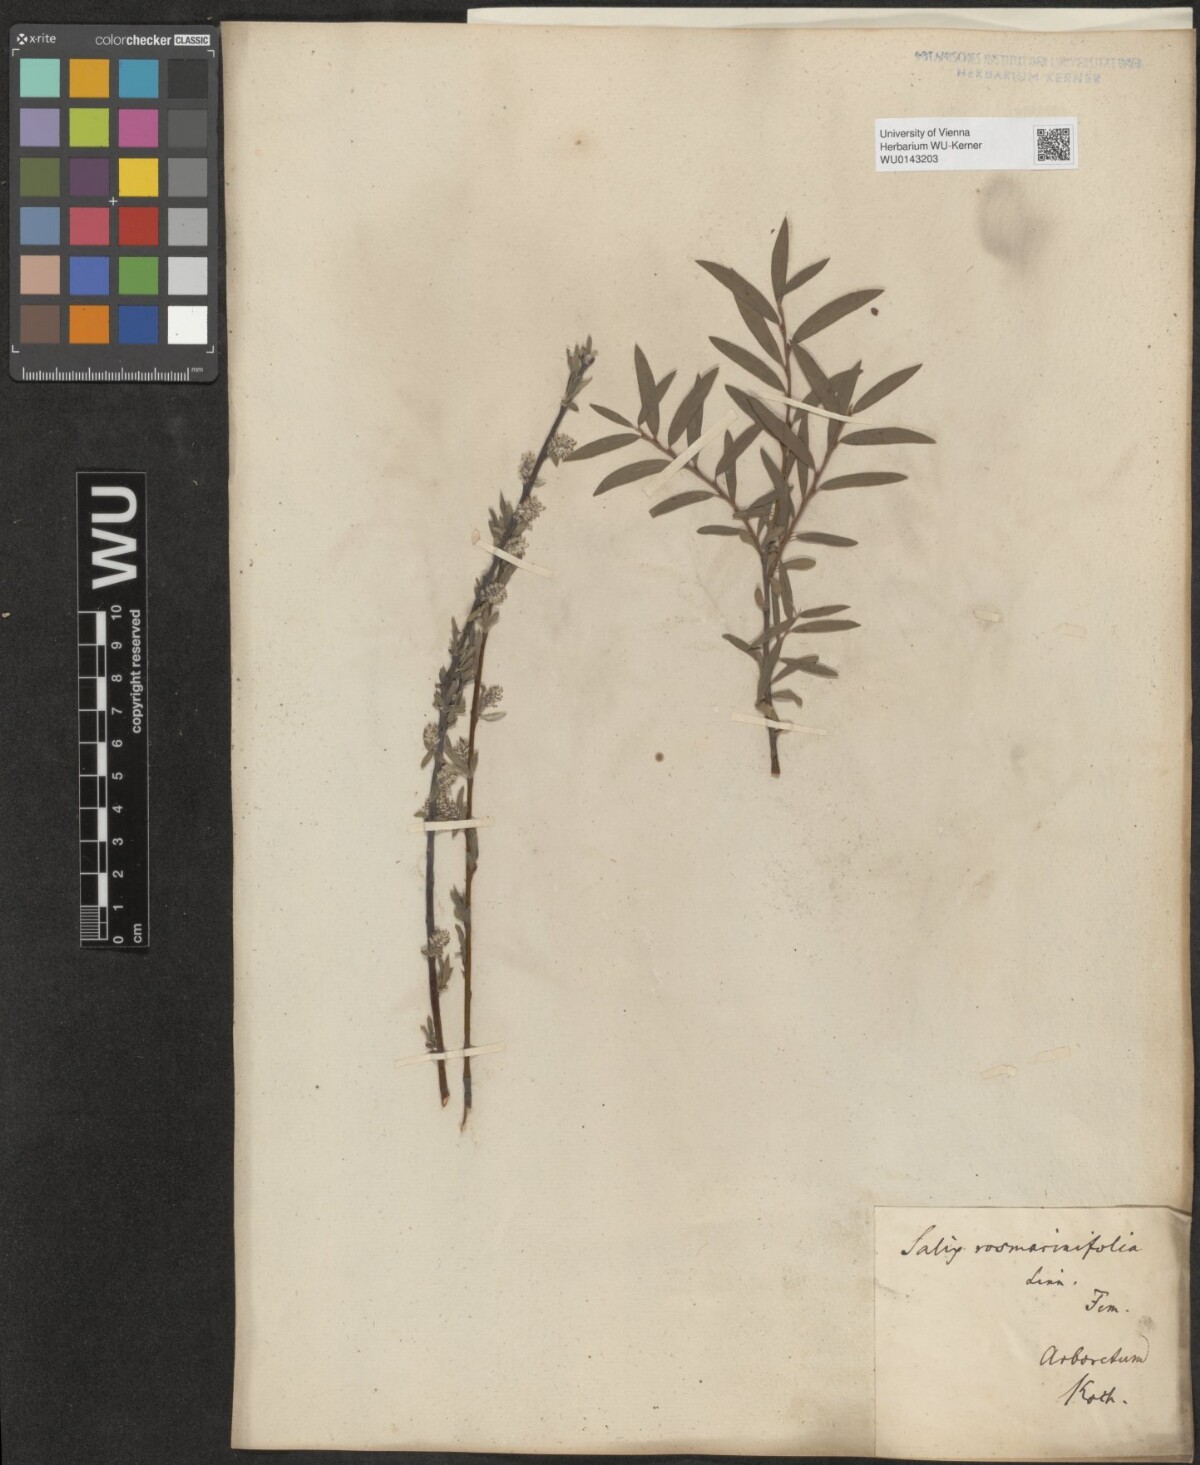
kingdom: Plantae
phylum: Tracheophyta
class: Magnoliopsida
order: Malpighiales
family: Salicaceae
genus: Salix
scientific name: Salix repens
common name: Creeping willow
